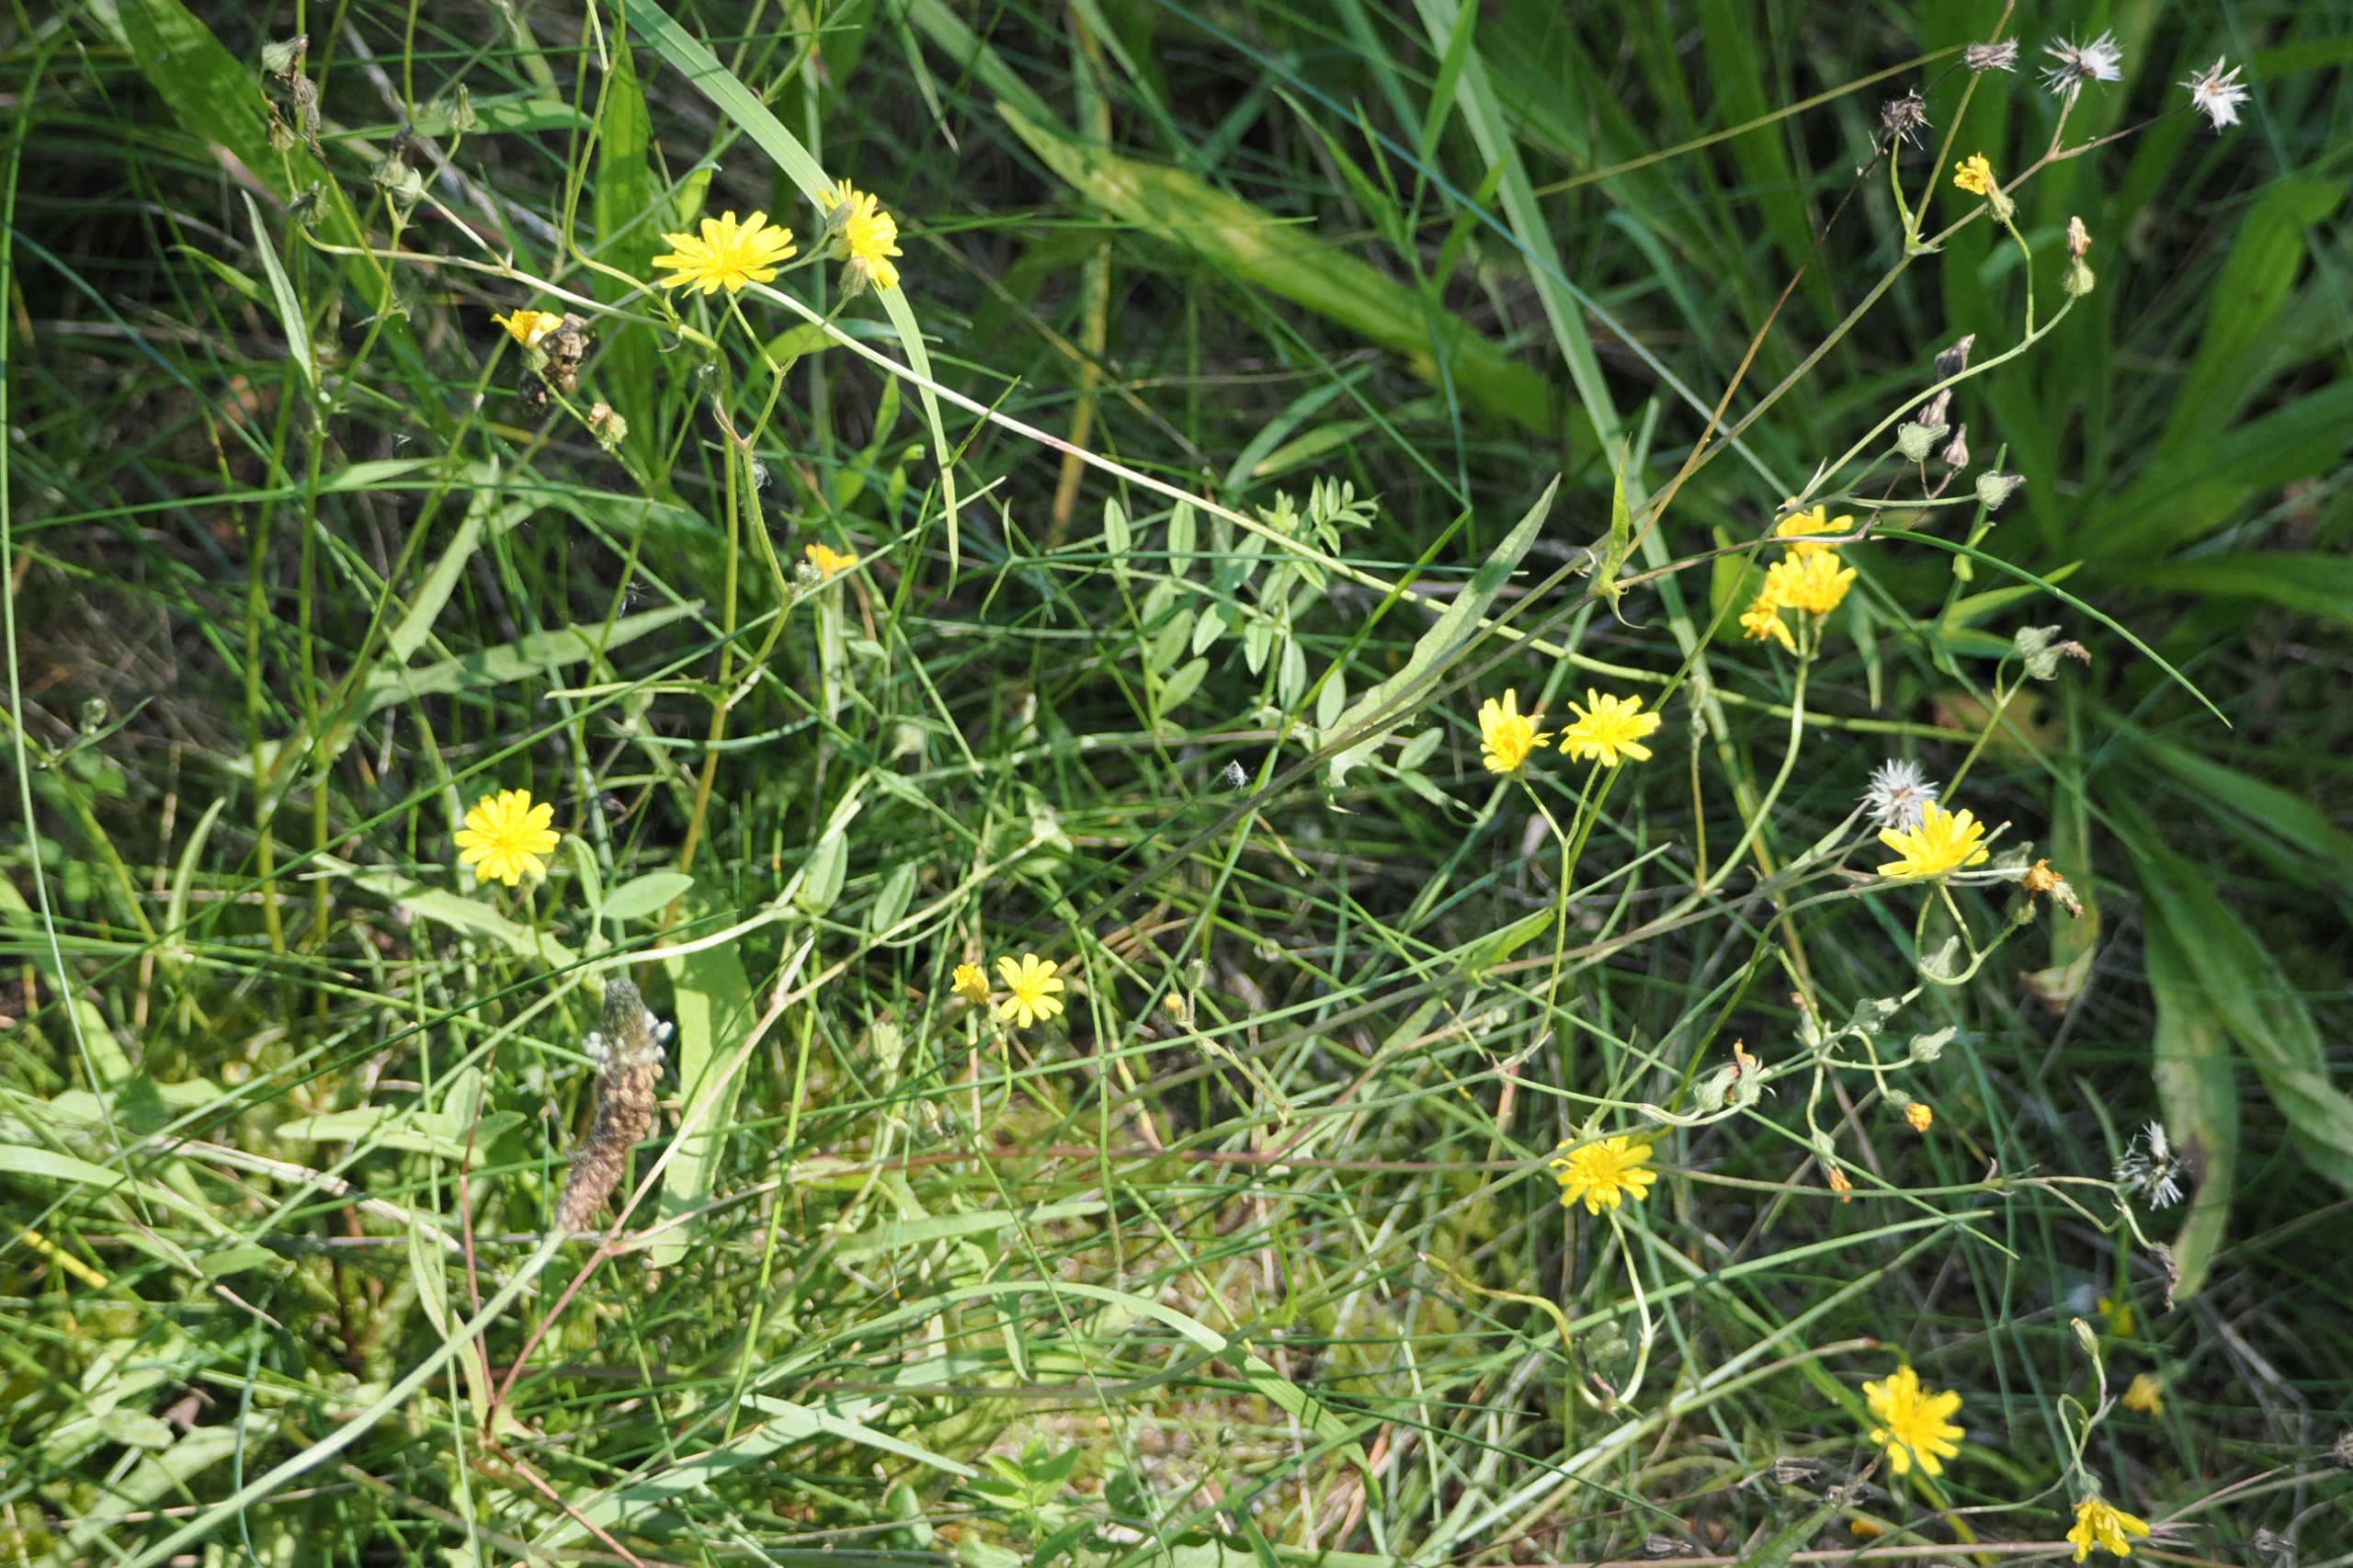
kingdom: Plantae
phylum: Tracheophyta
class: Magnoliopsida
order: Asterales
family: Asteraceae
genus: Crepis
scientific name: Crepis capillaris
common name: Grøn høgeskæg
